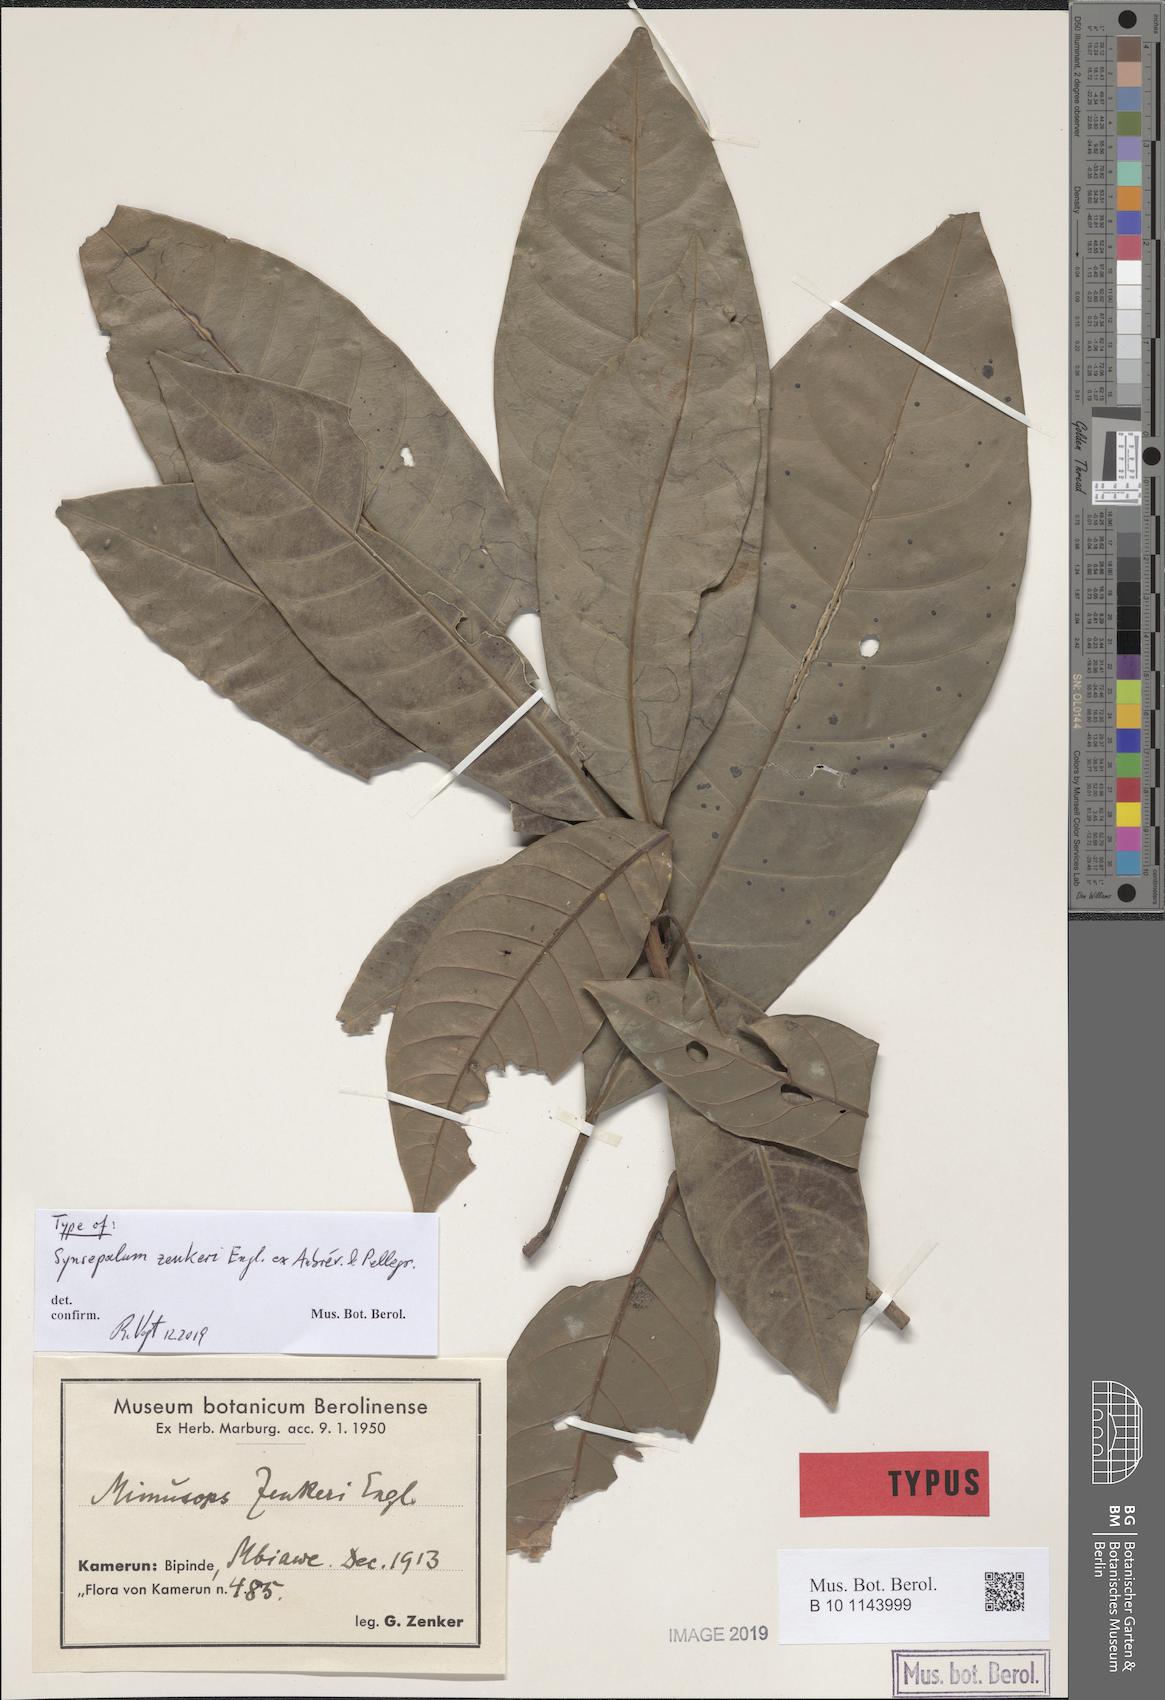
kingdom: Plantae
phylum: Tracheophyta
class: Magnoliopsida
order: Ericales
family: Sapotaceae
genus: Synsepalum
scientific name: Synsepalum zenkeri
